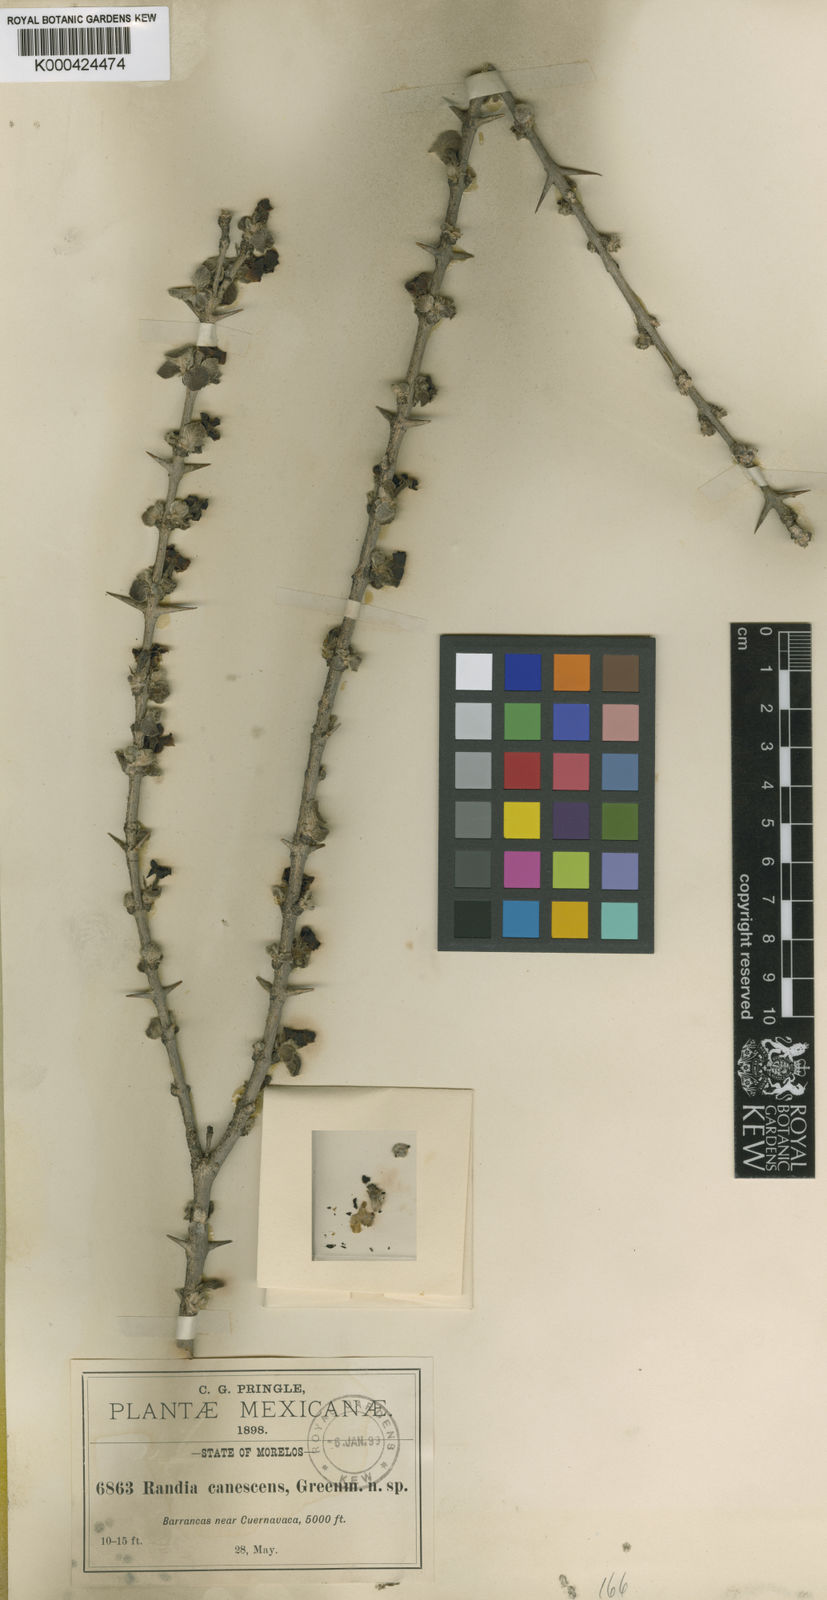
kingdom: Plantae
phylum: Tracheophyta
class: Magnoliopsida
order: Gentianales
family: Rubiaceae
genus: Randia
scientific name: Randia canescens
